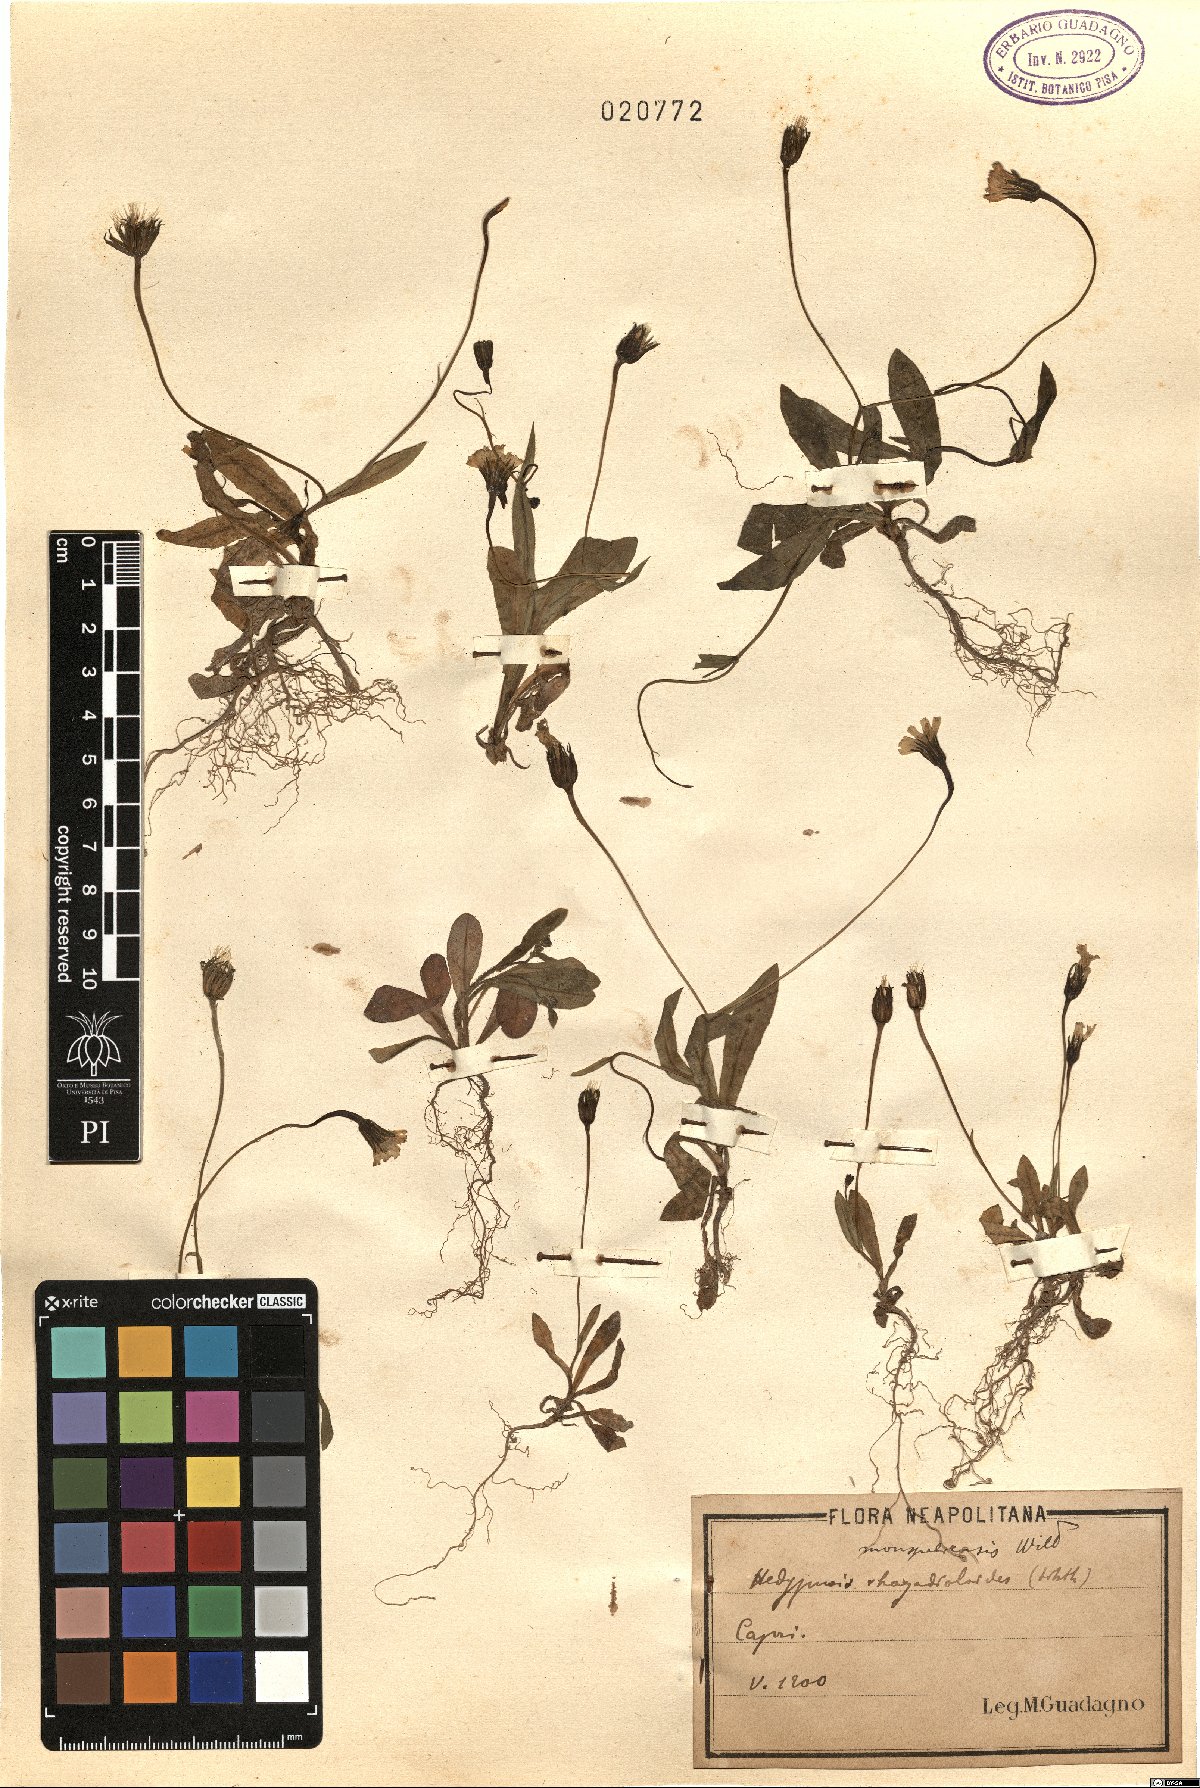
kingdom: Plantae
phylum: Tracheophyta
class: Magnoliopsida
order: Asterales
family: Asteraceae
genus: Hedypnois
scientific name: Hedypnois rhagadioloides
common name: Cretan weed
